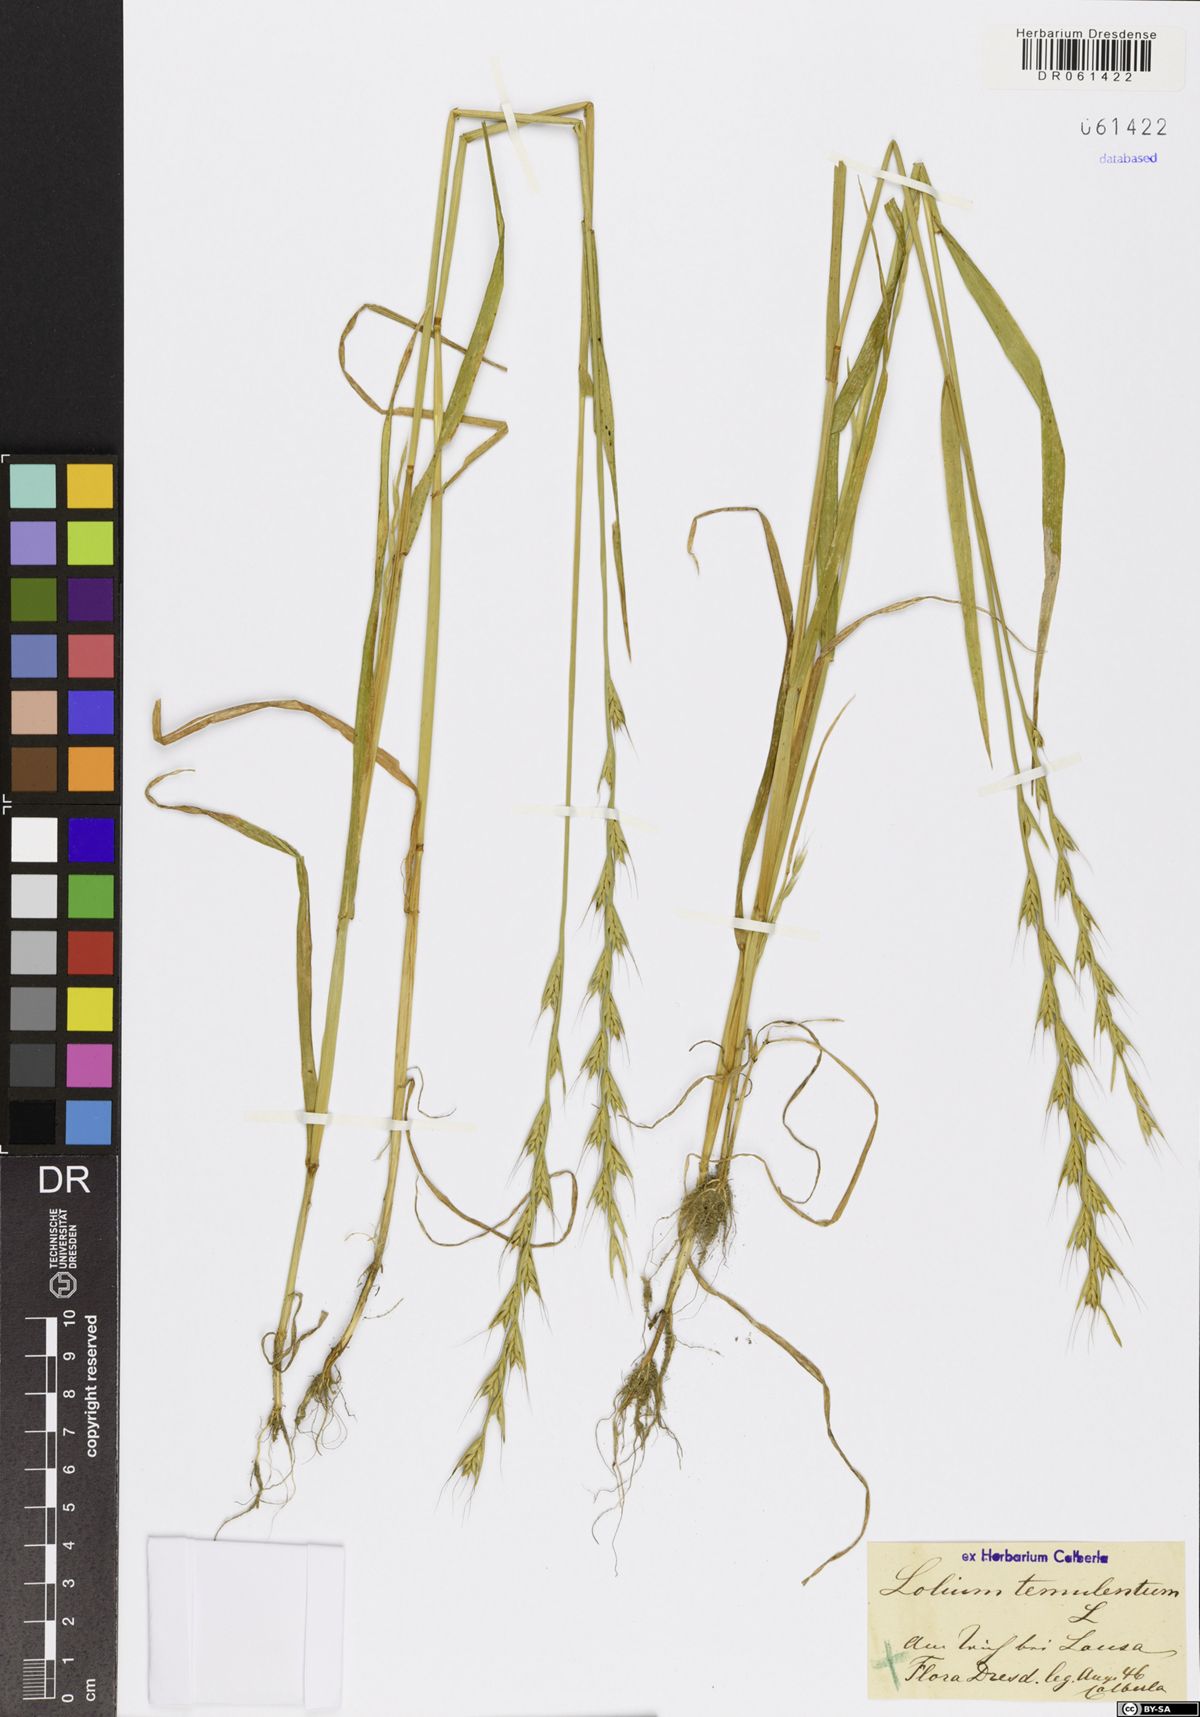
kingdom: Plantae
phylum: Tracheophyta
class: Liliopsida
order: Poales
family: Poaceae
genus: Lolium
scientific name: Lolium temulentum
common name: Darnel
